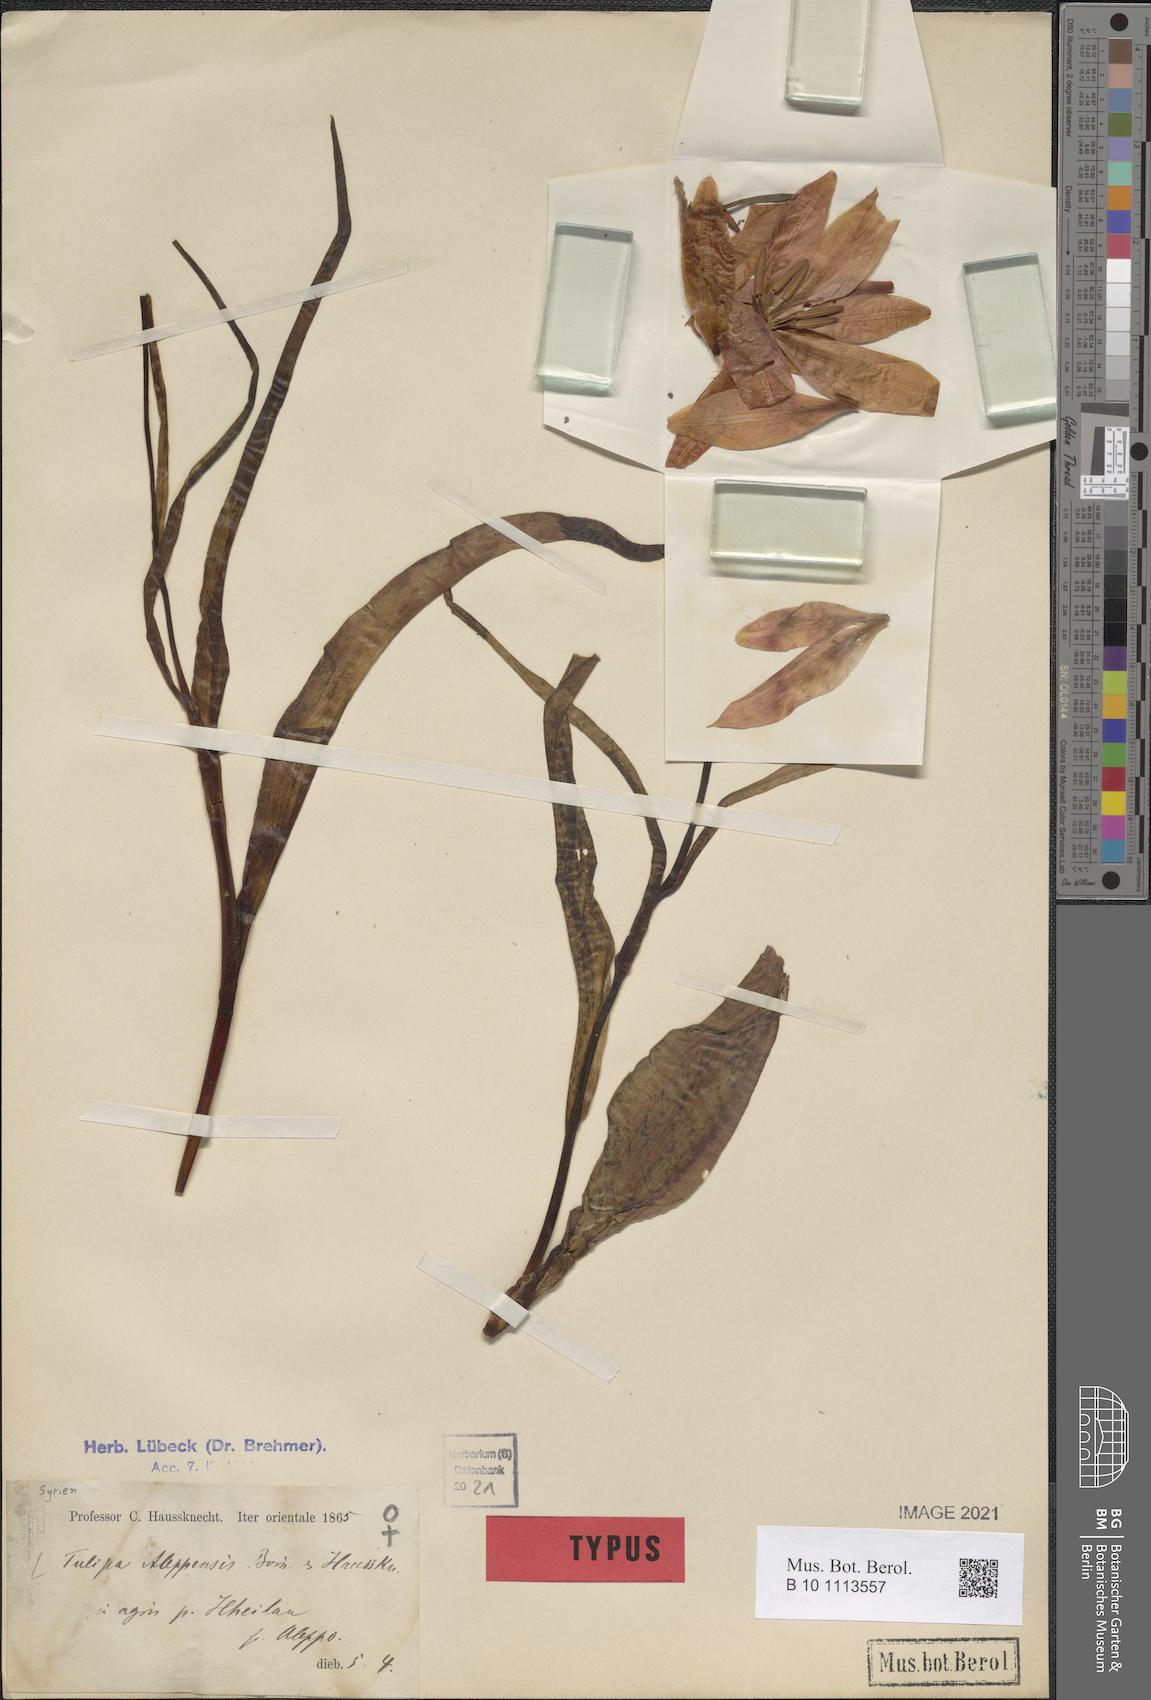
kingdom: Plantae
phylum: Tracheophyta
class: Liliopsida
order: Liliales
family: Liliaceae
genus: Tulipa
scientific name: Tulipa aleppensis
